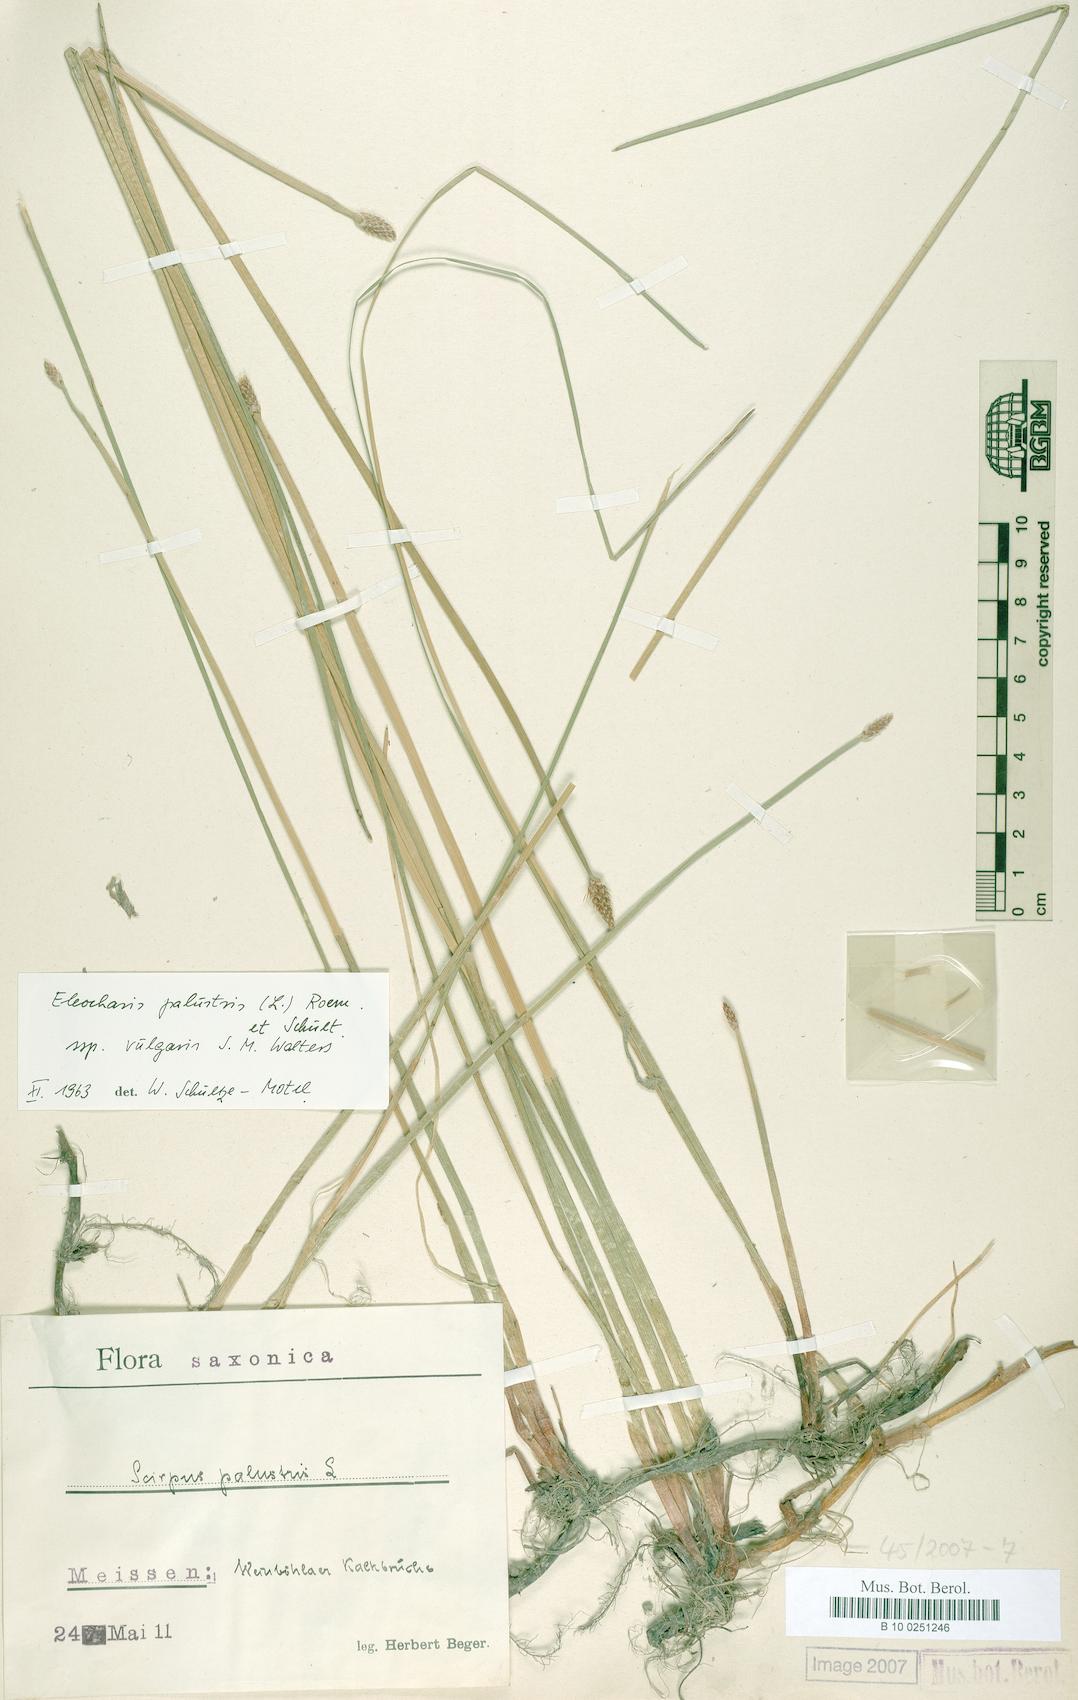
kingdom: Plantae
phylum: Tracheophyta
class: Liliopsida
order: Poales
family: Cyperaceae
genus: Eleocharis
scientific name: Eleocharis palustris
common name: Common spike-rush
